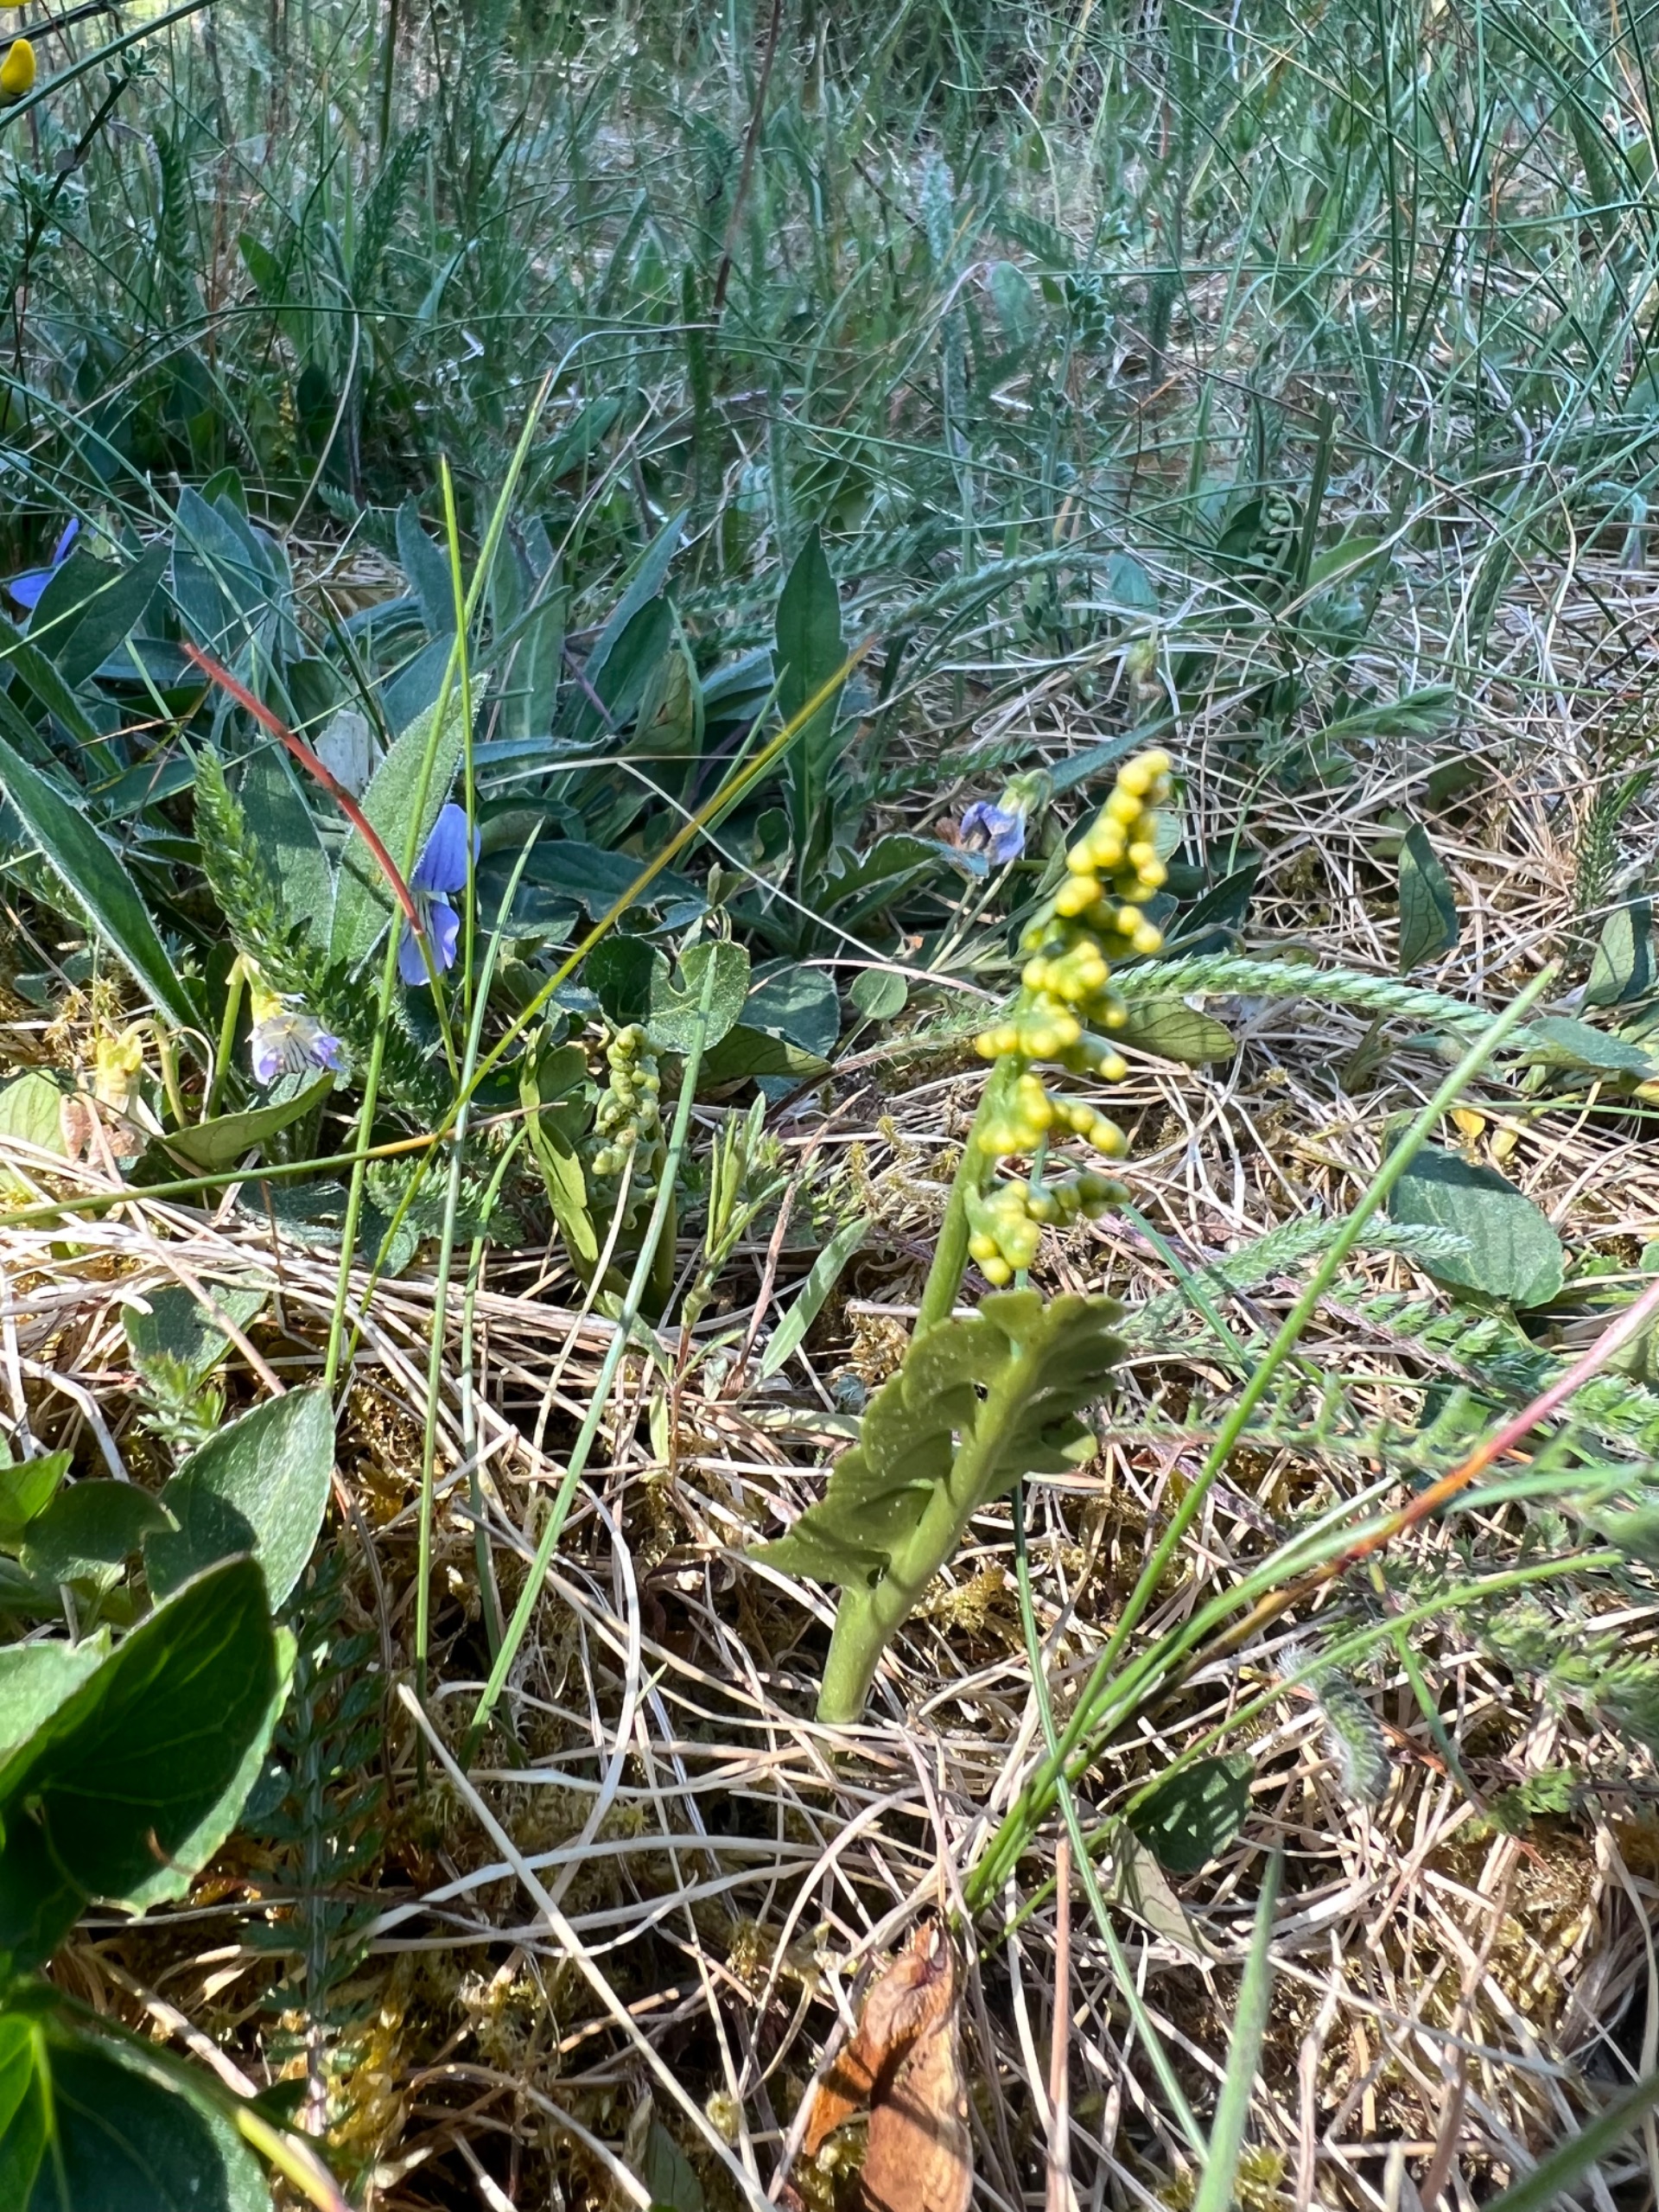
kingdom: Plantae
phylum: Tracheophyta
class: Polypodiopsida
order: Ophioglossales
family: Ophioglossaceae
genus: Botrychium
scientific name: Botrychium lunaria
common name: Almindelig månerude
